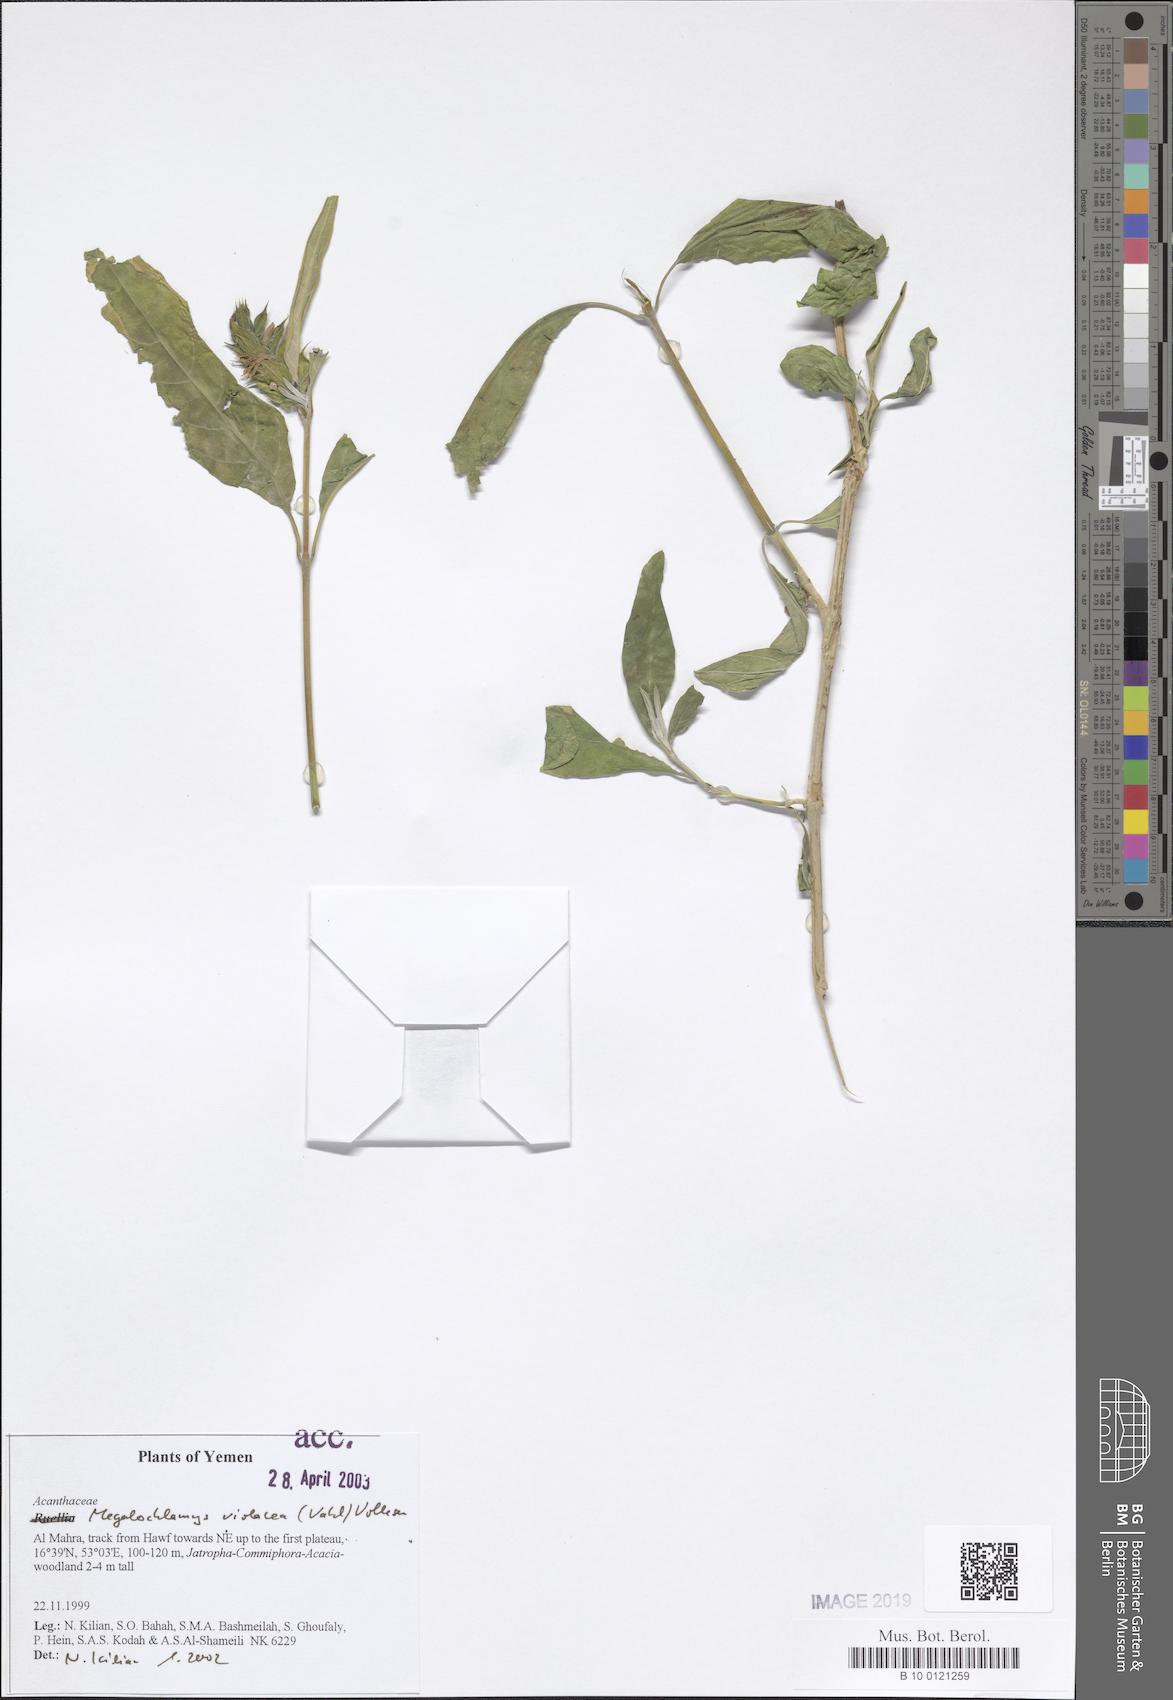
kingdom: Plantae
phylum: Tracheophyta
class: Magnoliopsida
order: Lamiales
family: Acanthaceae
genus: Megalochlamys
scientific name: Megalochlamys violacea
